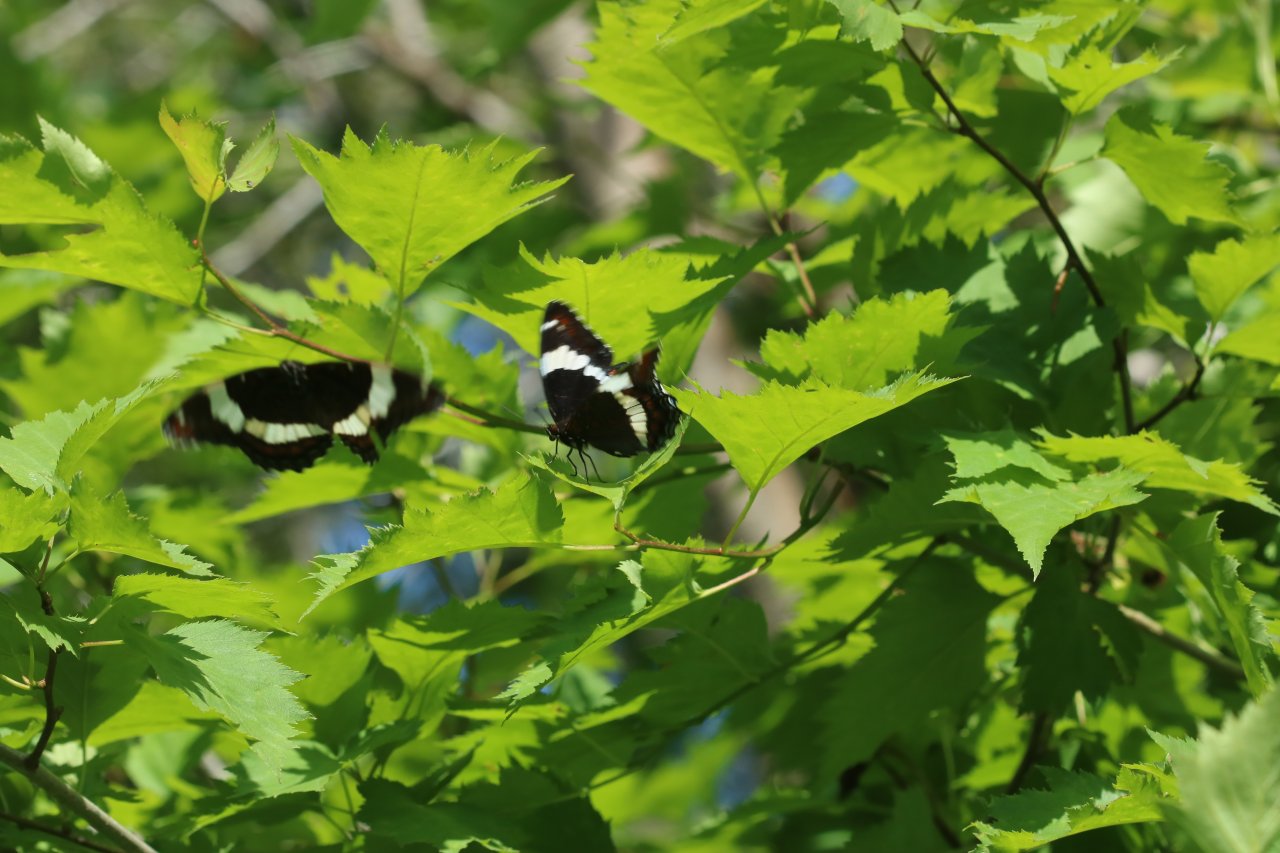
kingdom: Animalia
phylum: Arthropoda
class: Insecta
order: Lepidoptera
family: Nymphalidae
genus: Limenitis
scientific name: Limenitis arthemis
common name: Red-spotted Admiral
